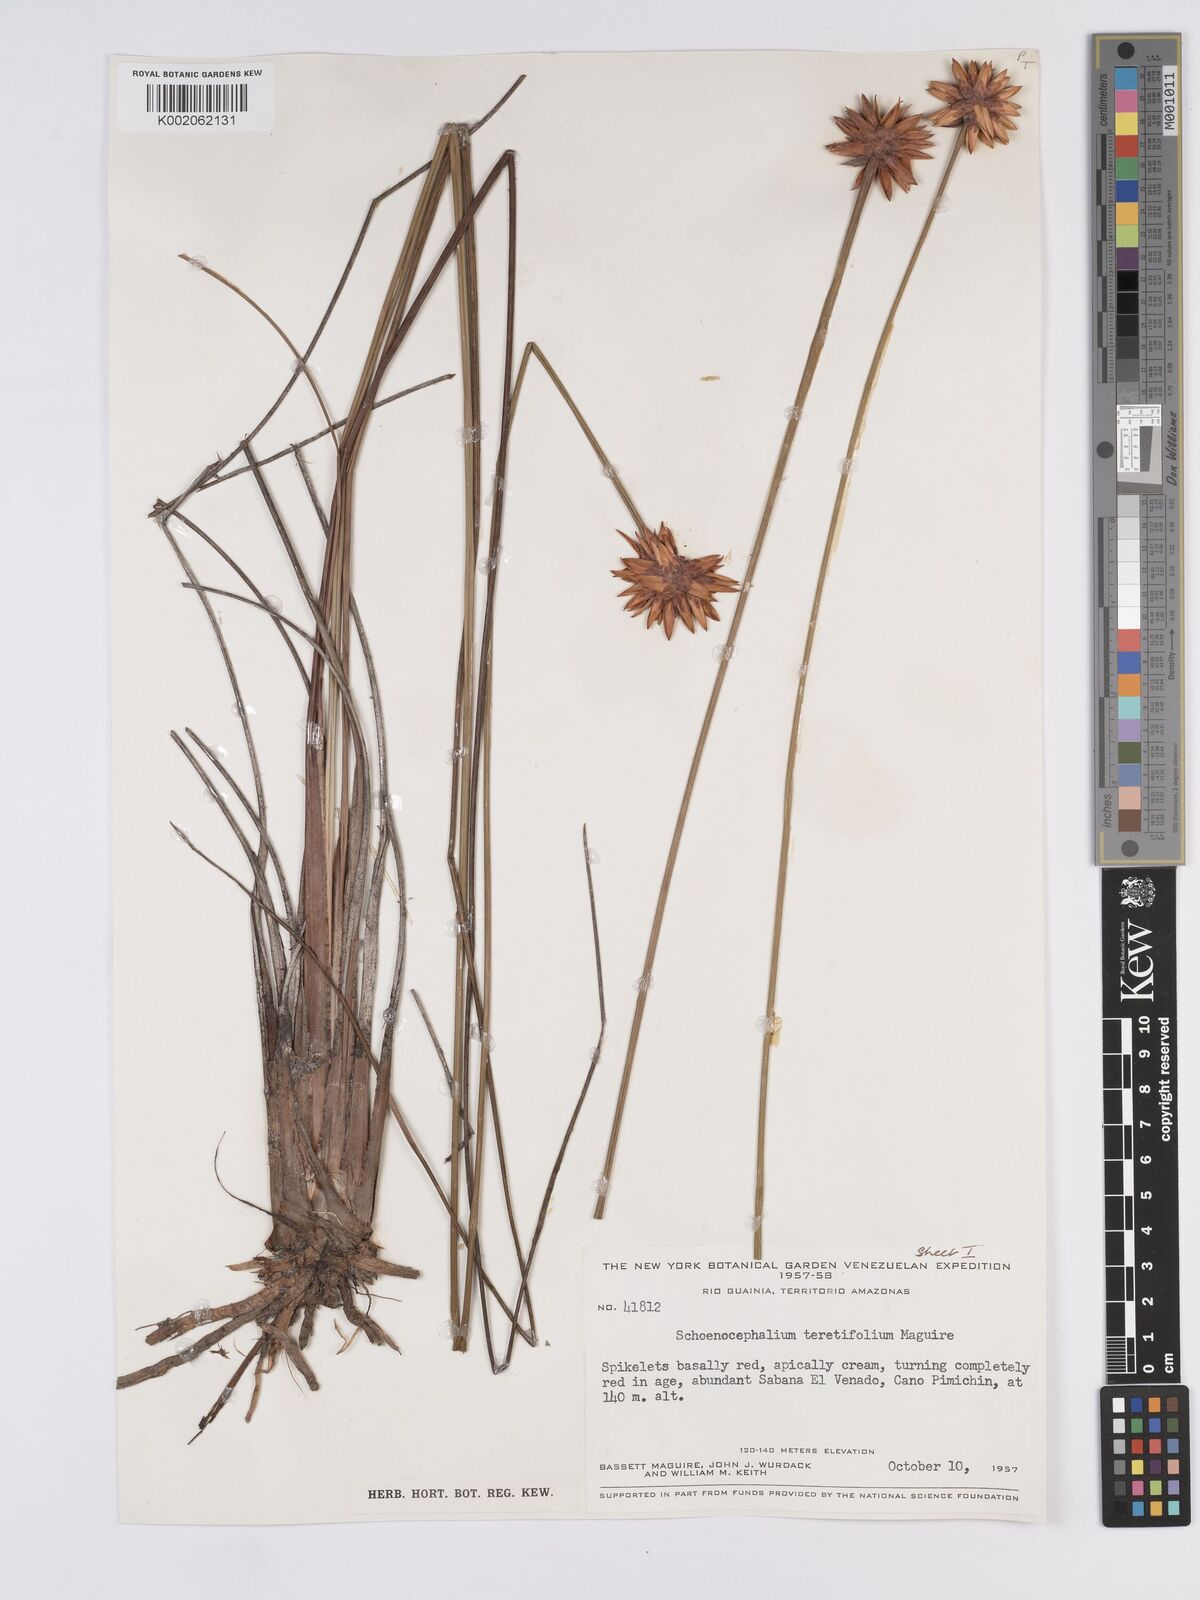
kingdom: Plantae
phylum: Tracheophyta
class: Liliopsida
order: Poales
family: Rapateaceae
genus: Schoenocephalium
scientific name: Schoenocephalium teretifolium
